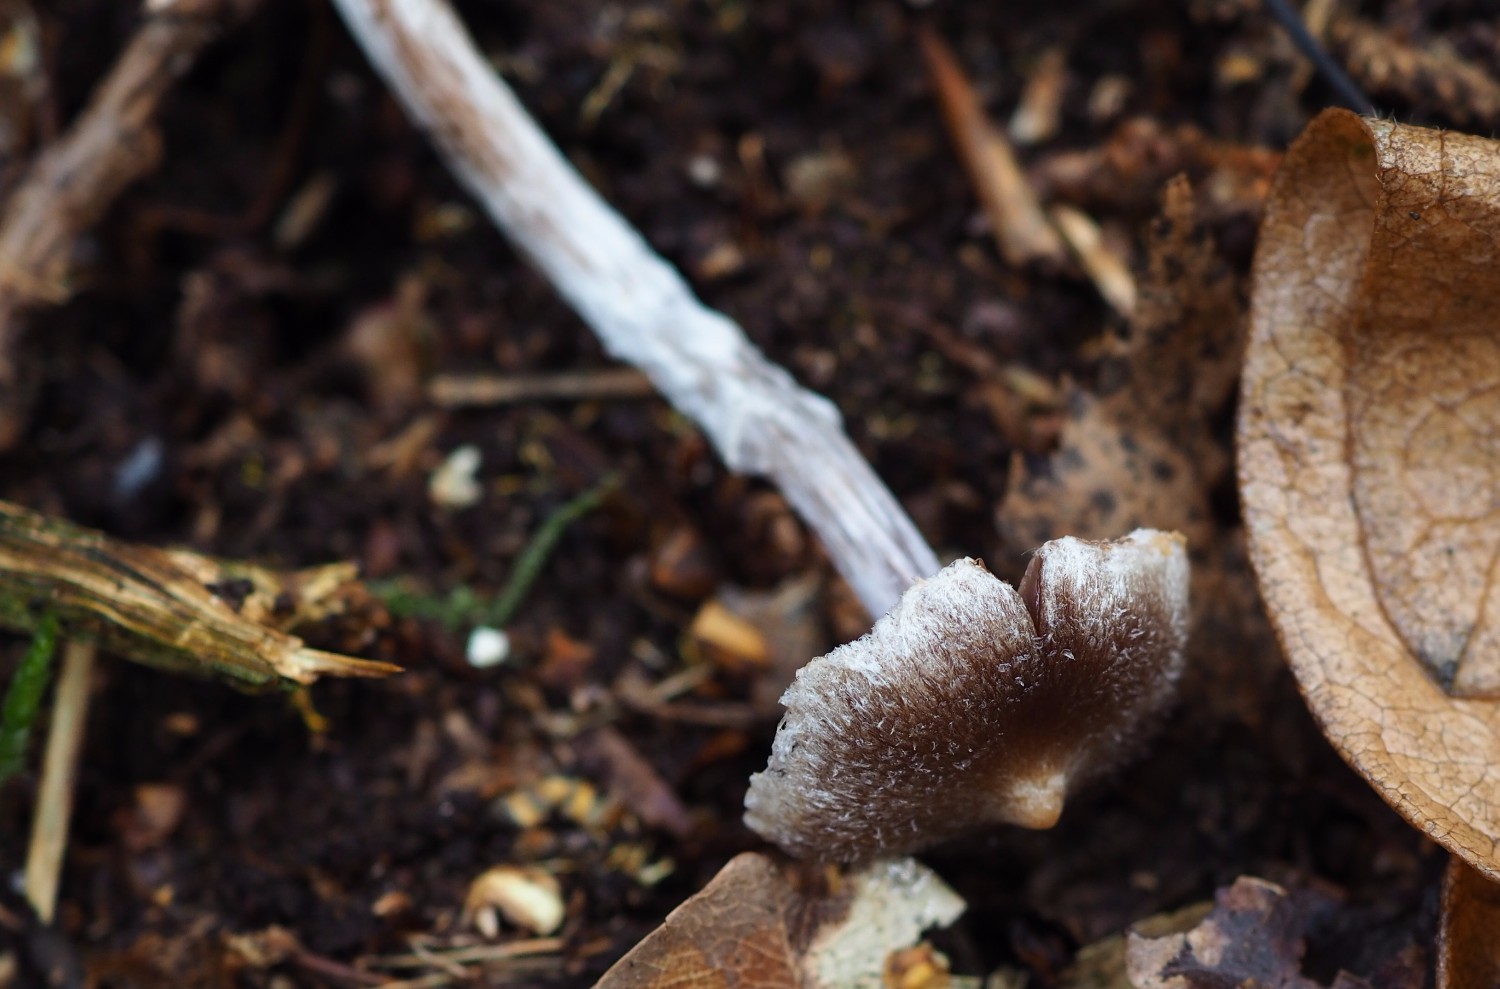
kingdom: Fungi
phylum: Basidiomycota
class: Agaricomycetes
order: Agaricales
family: Cortinariaceae
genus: Cortinarius
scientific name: Cortinarius
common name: pelargonie-slørhat
